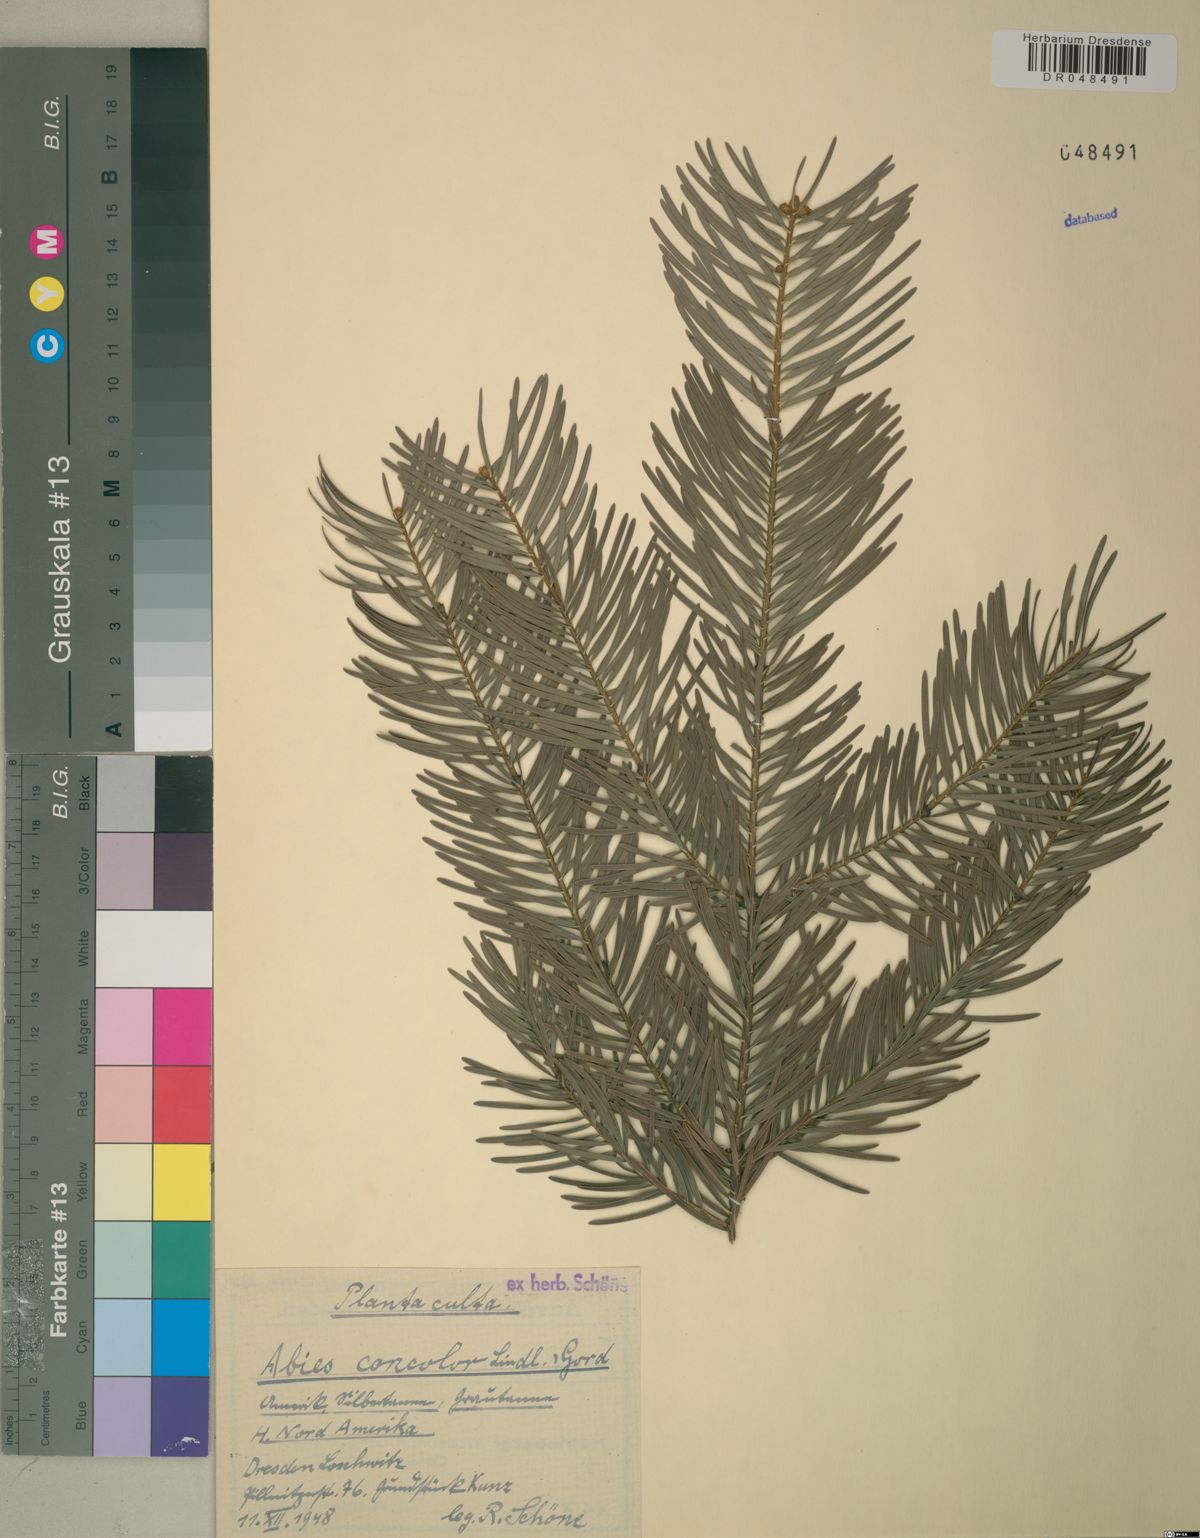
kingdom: Plantae
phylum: Tracheophyta
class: Pinopsida
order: Pinales
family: Pinaceae
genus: Abies
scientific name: Abies concolor
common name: Colorado fir
